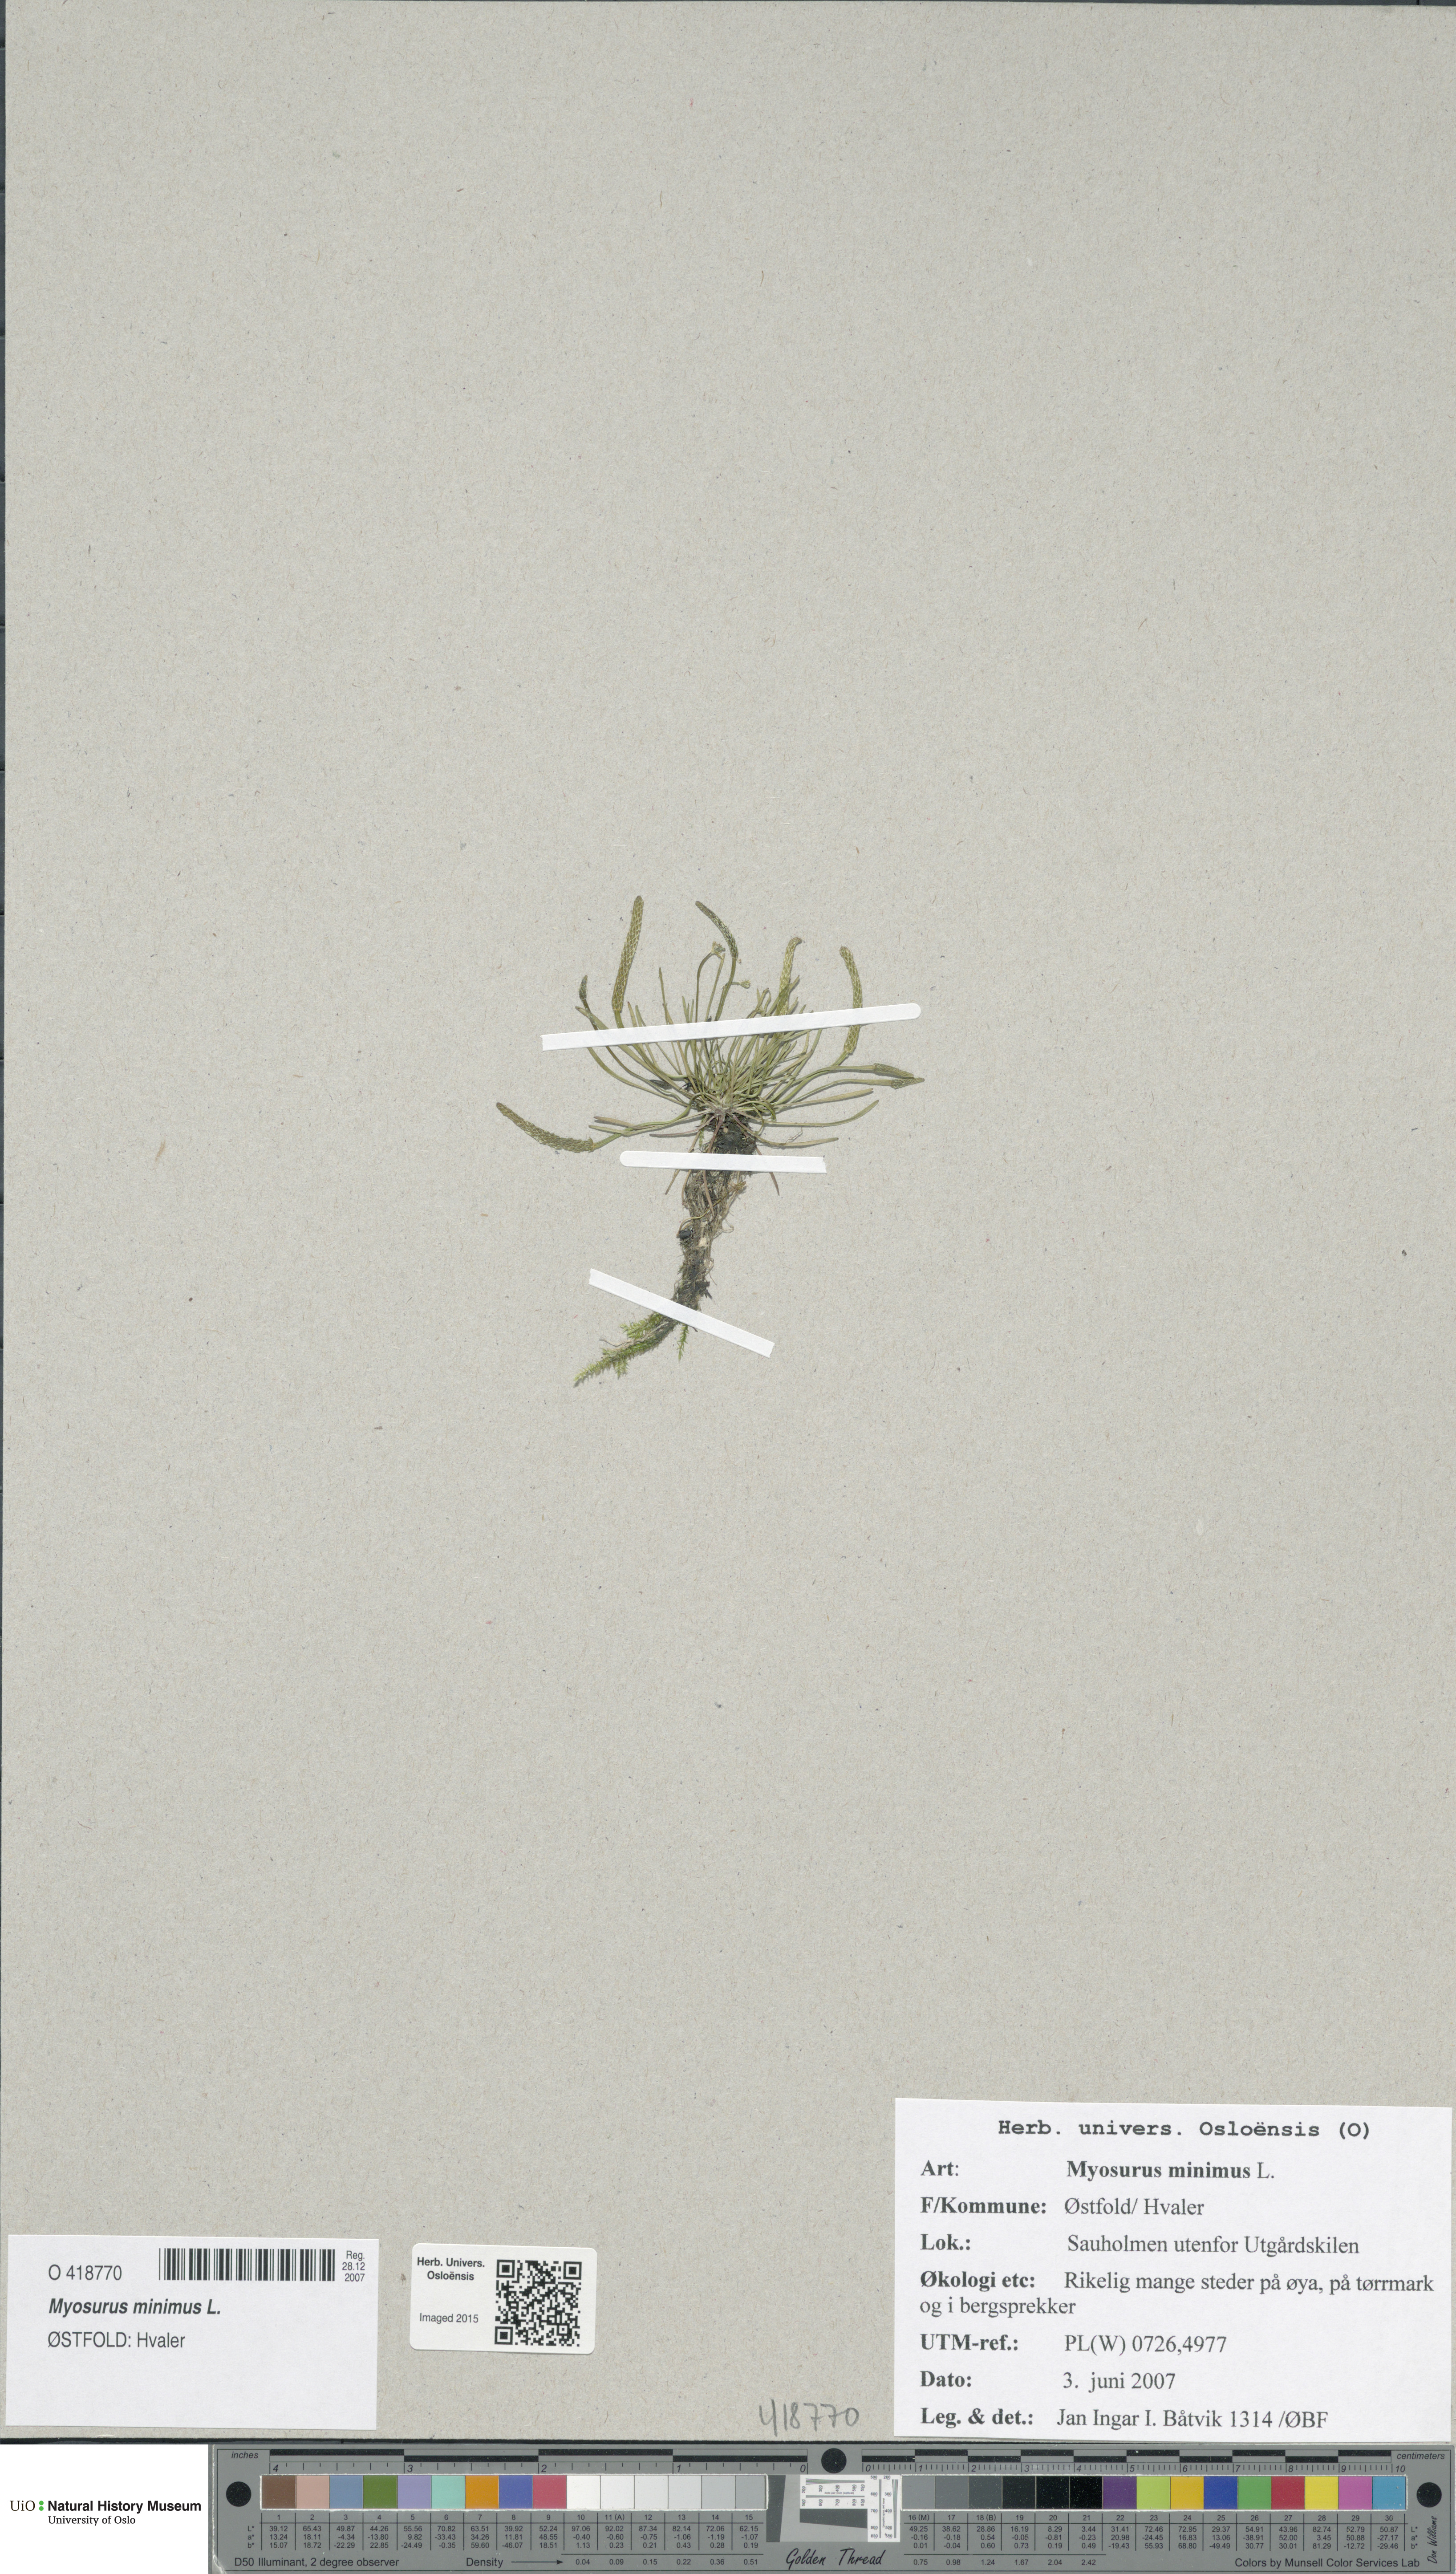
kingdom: Plantae
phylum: Tracheophyta
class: Magnoliopsida
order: Ranunculales
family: Ranunculaceae
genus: Myosurus
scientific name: Myosurus minimus
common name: Mousetail
